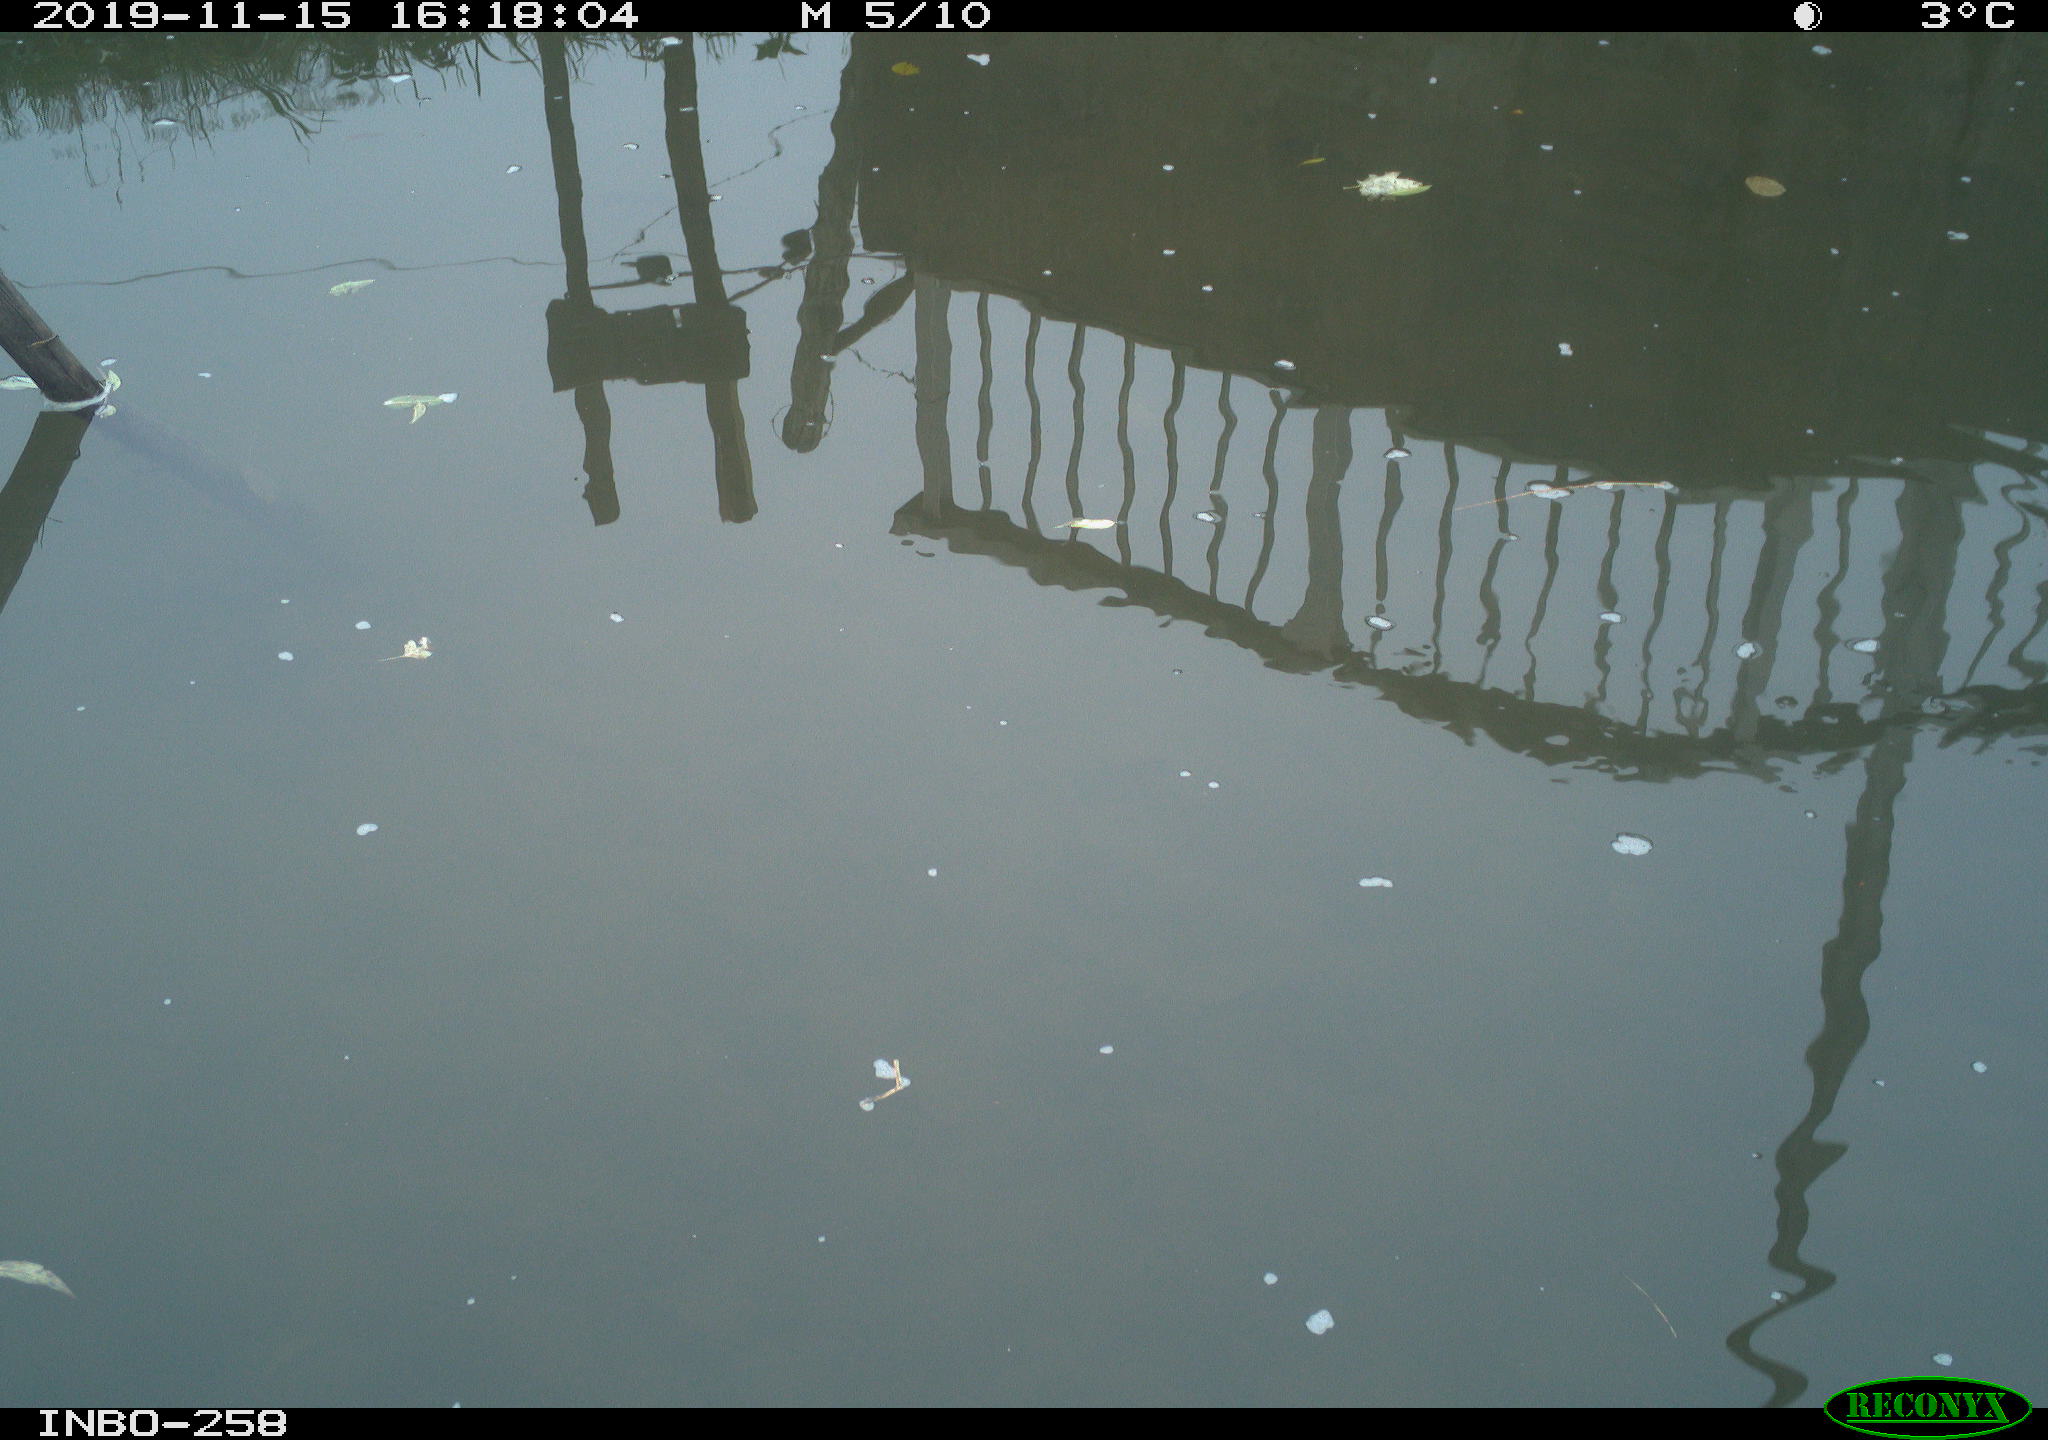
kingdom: Animalia
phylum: Chordata
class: Aves
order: Gruiformes
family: Rallidae
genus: Gallinula
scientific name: Gallinula chloropus
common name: Common moorhen
